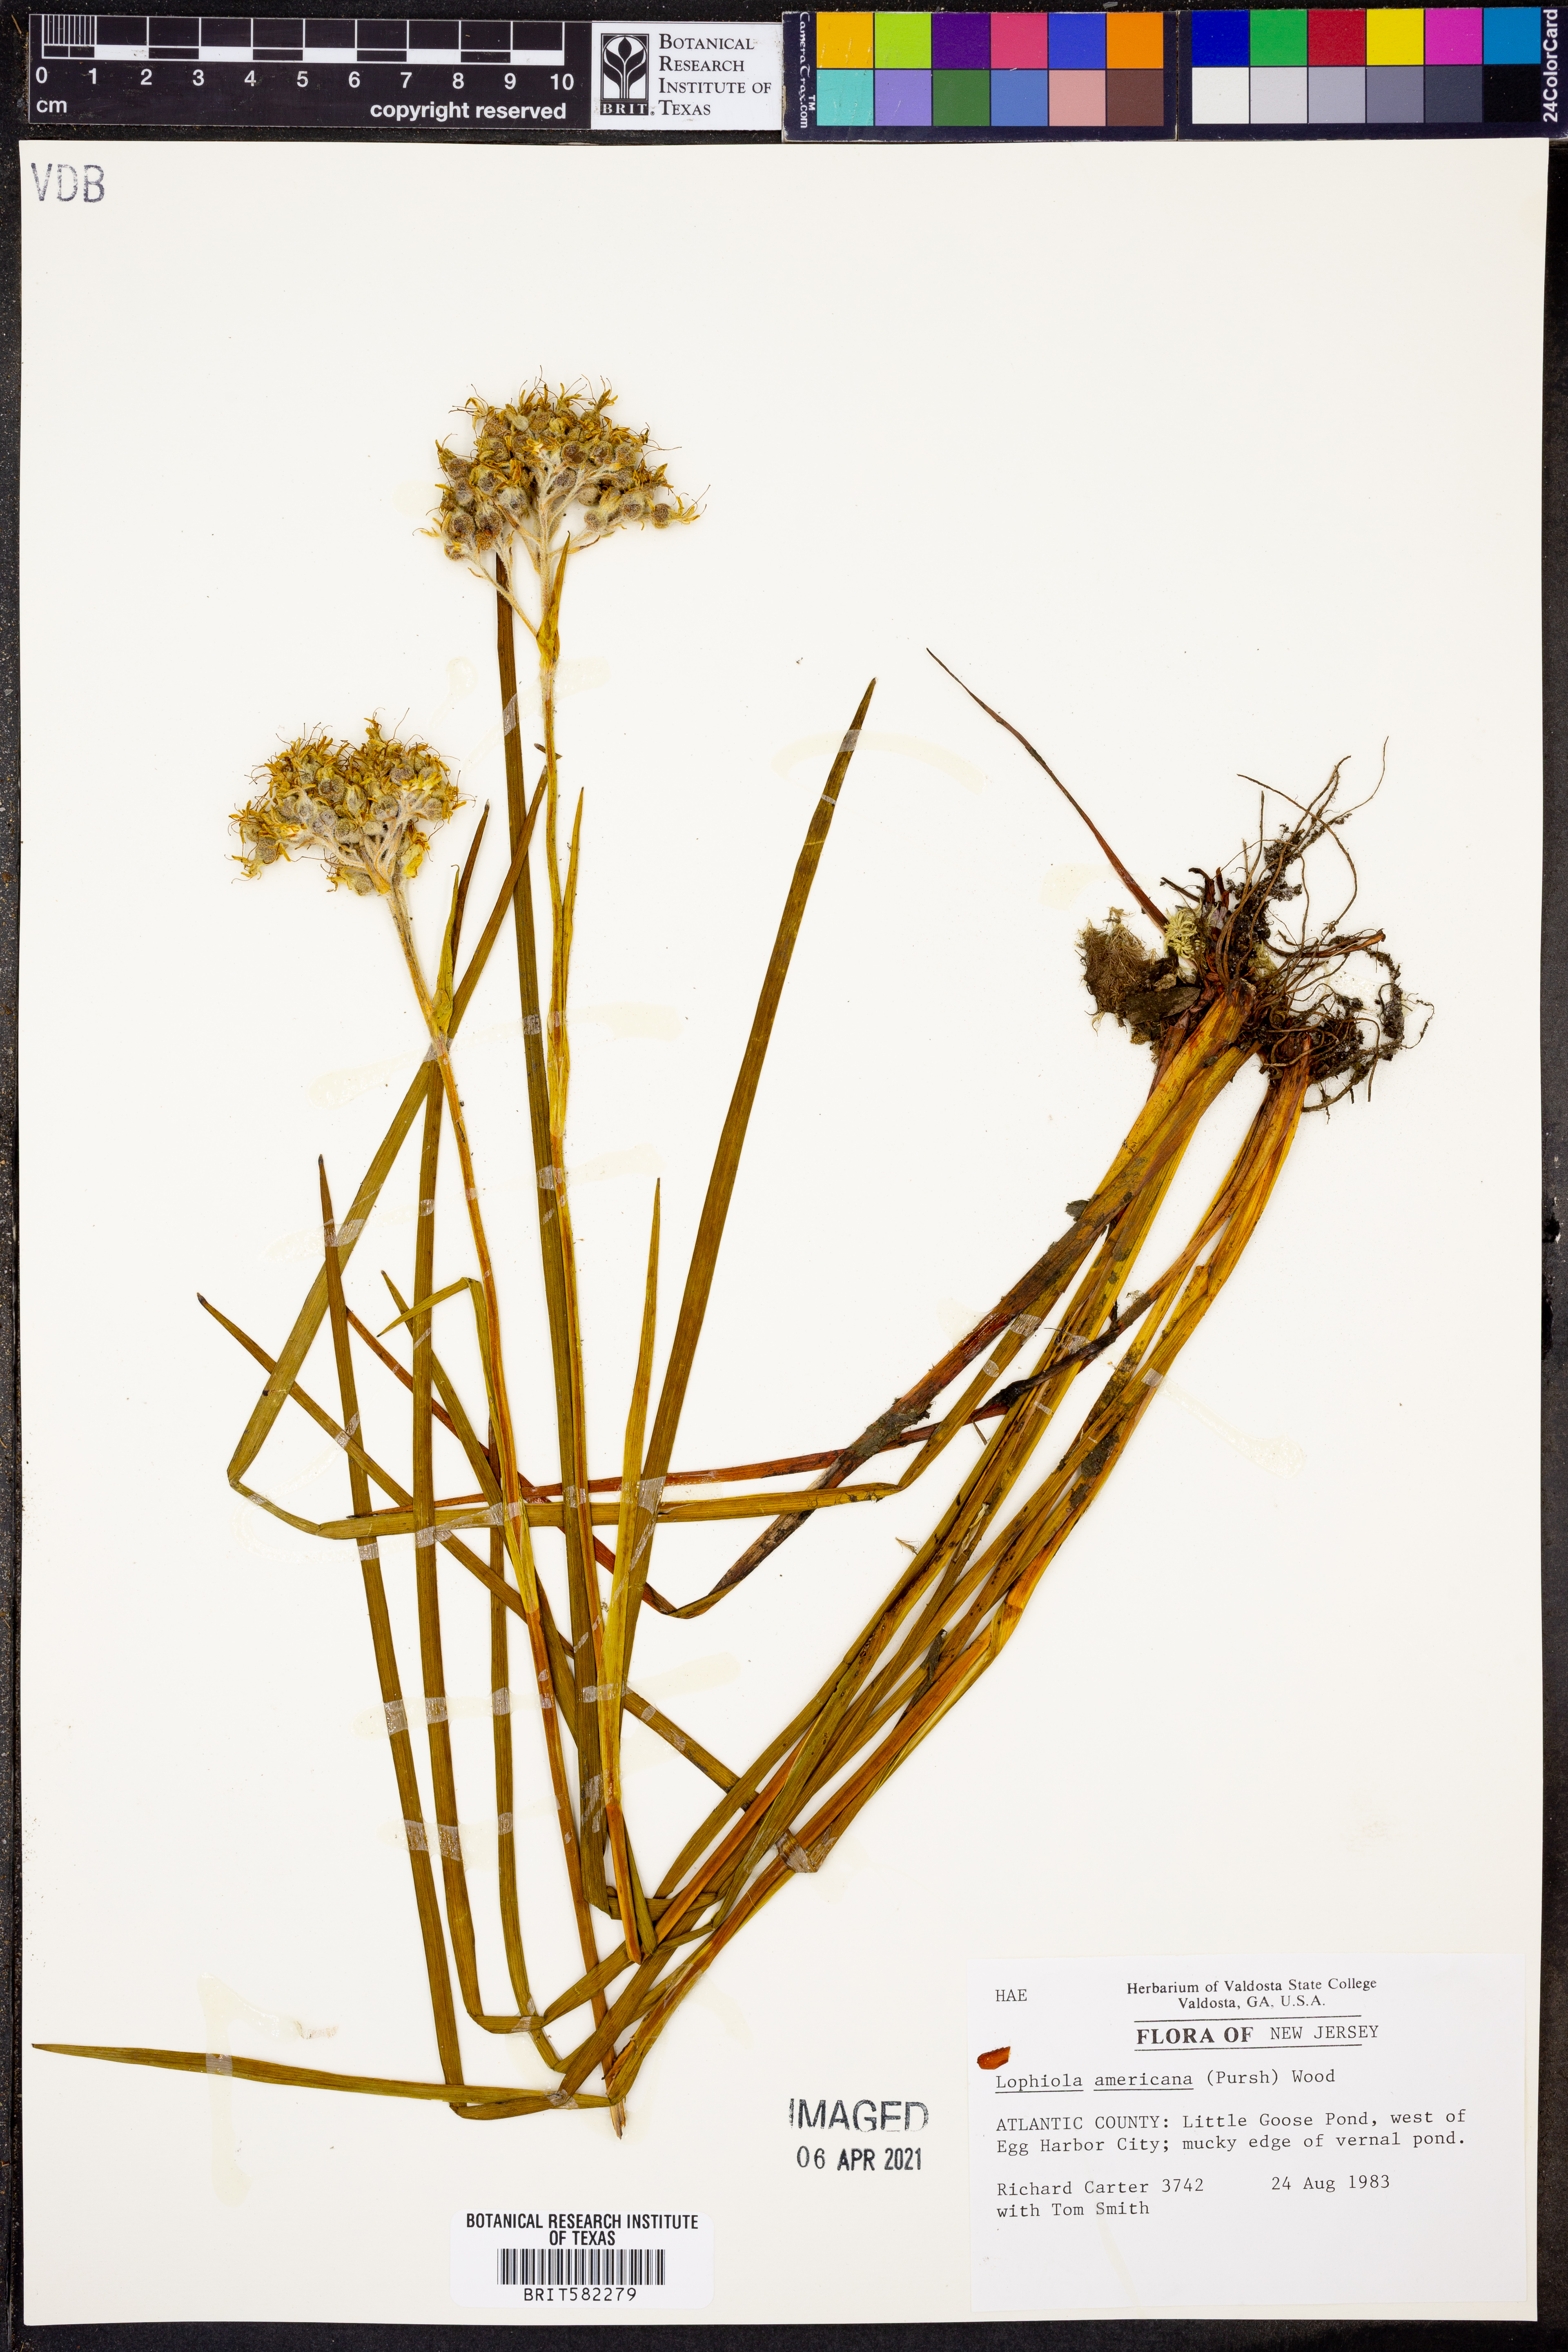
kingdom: Plantae
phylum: Tracheophyta
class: Liliopsida
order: Dioscoreales
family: Nartheciaceae
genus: Lophiola
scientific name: Lophiola aurea
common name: Golden-crest
